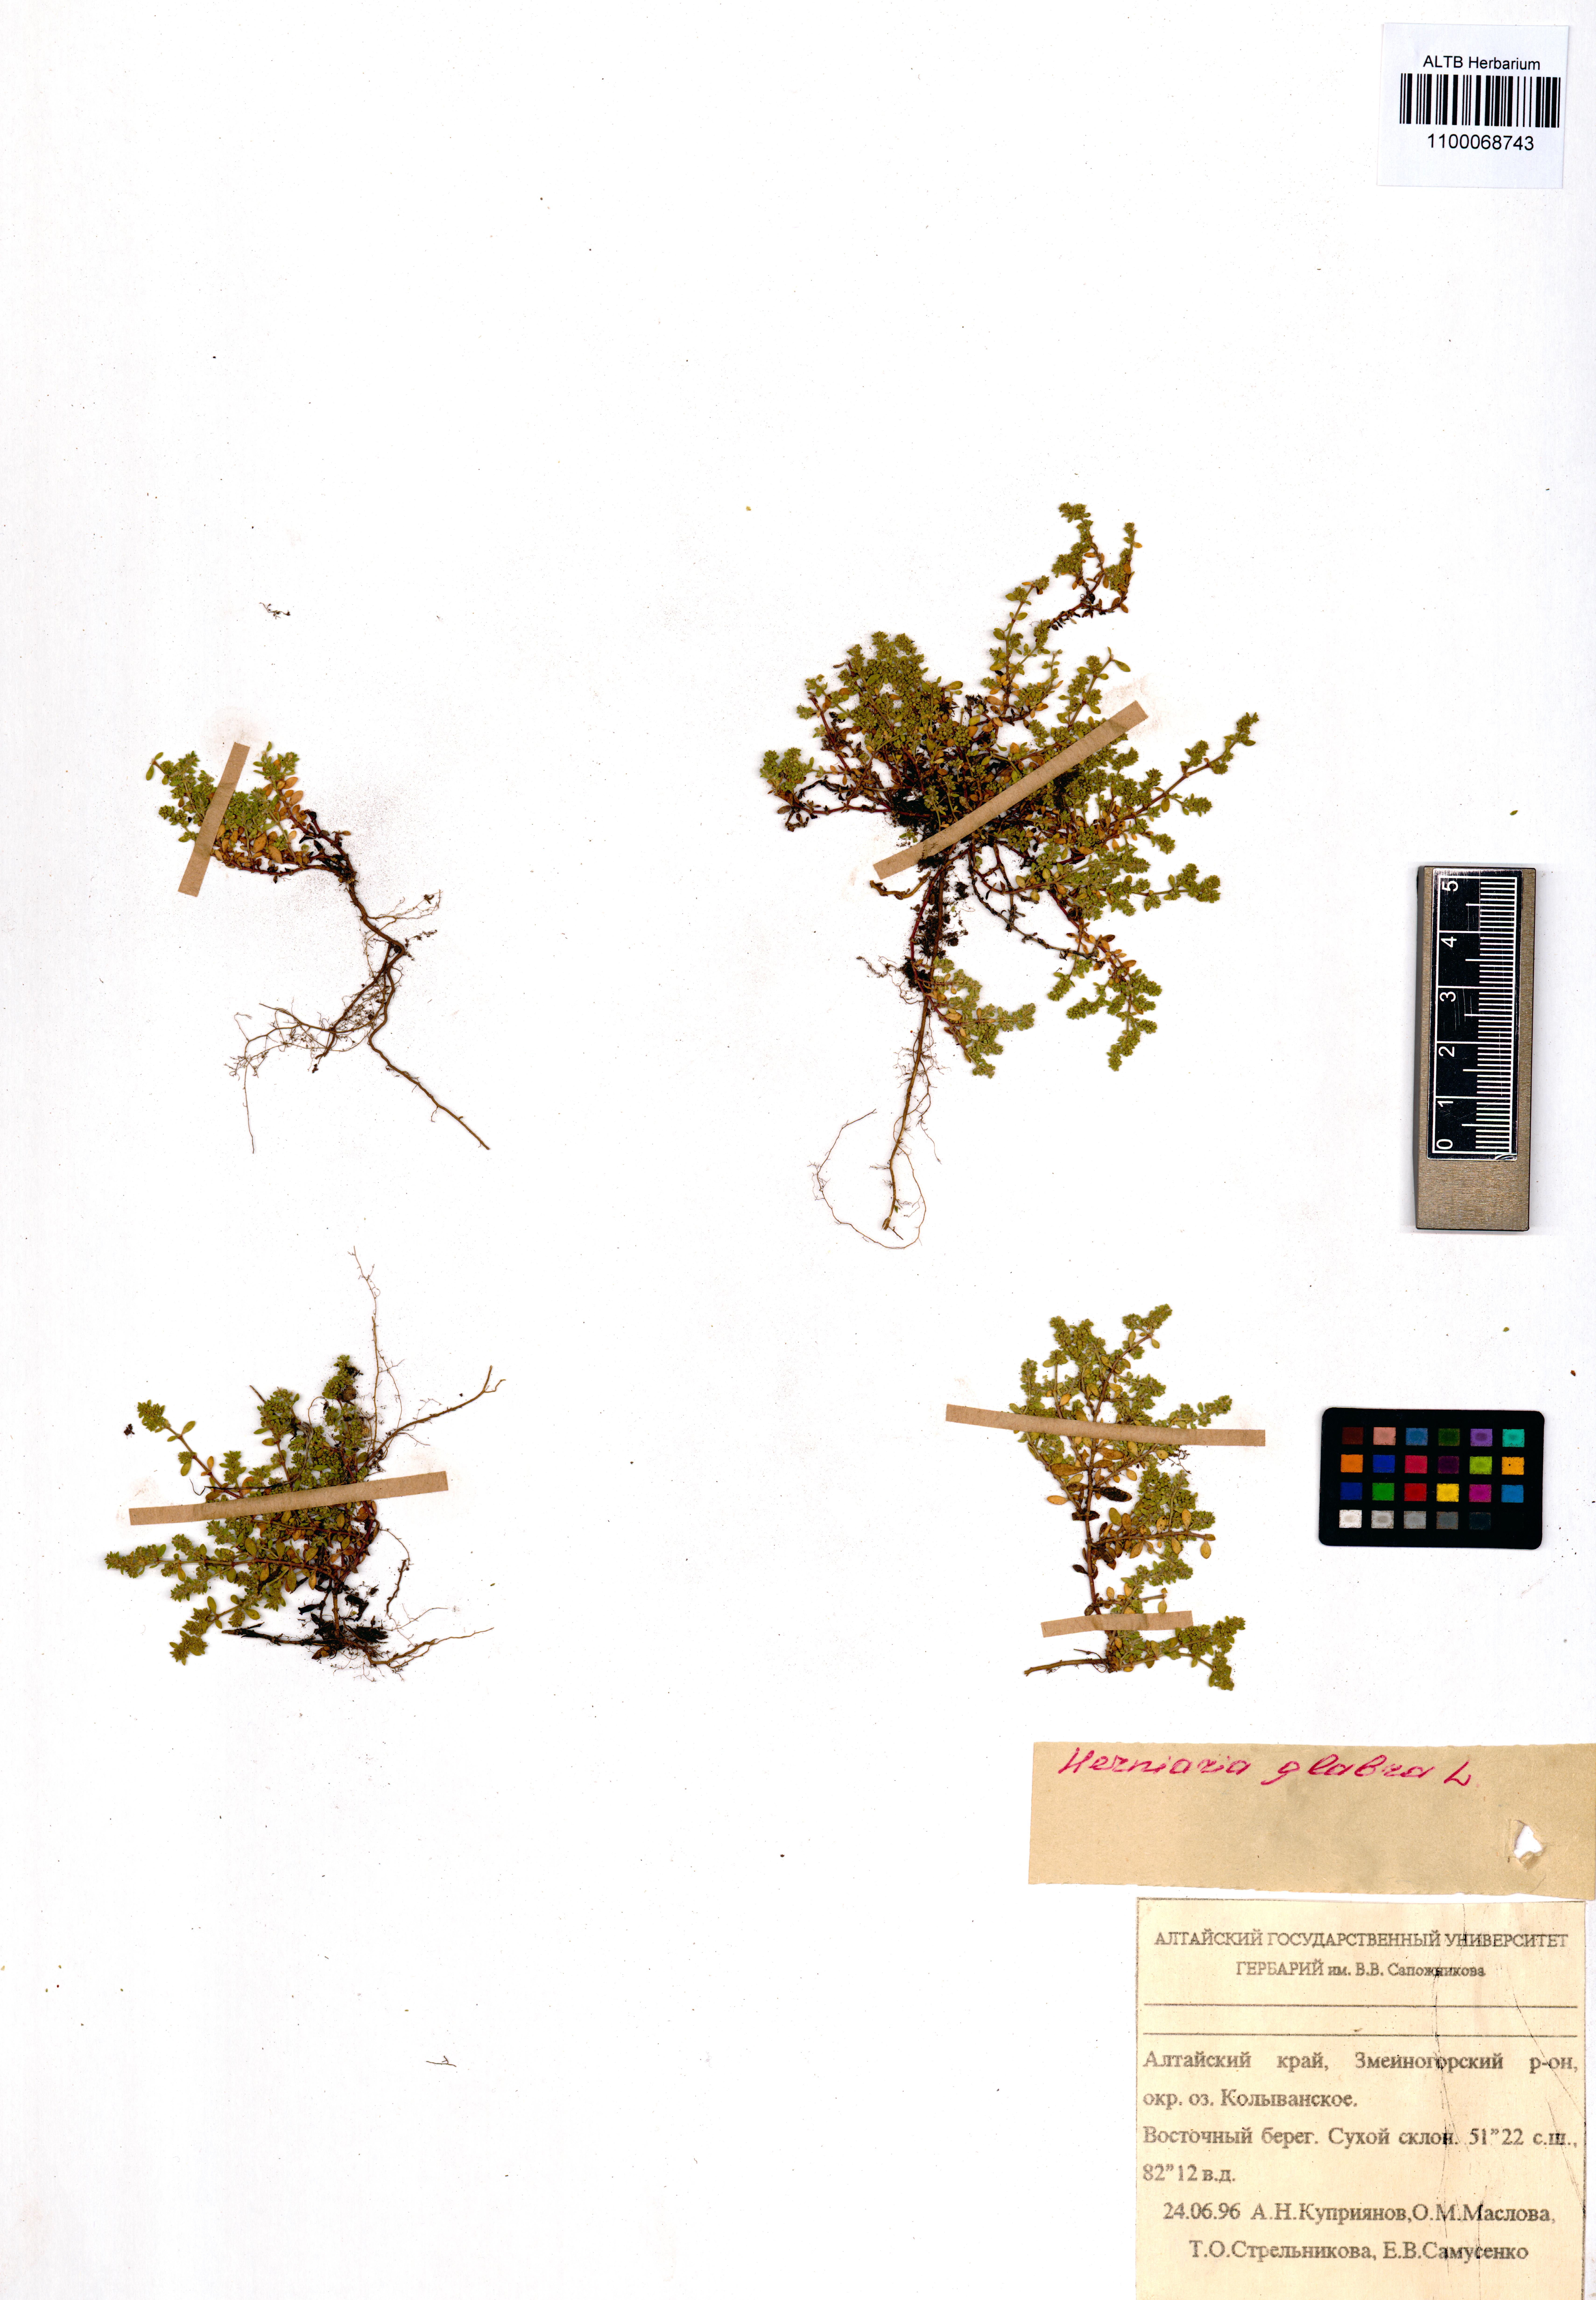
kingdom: Plantae
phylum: Tracheophyta
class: Magnoliopsida
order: Caryophyllales
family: Caryophyllaceae
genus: Herniaria
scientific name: Herniaria glabra
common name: Smooth rupturewort
